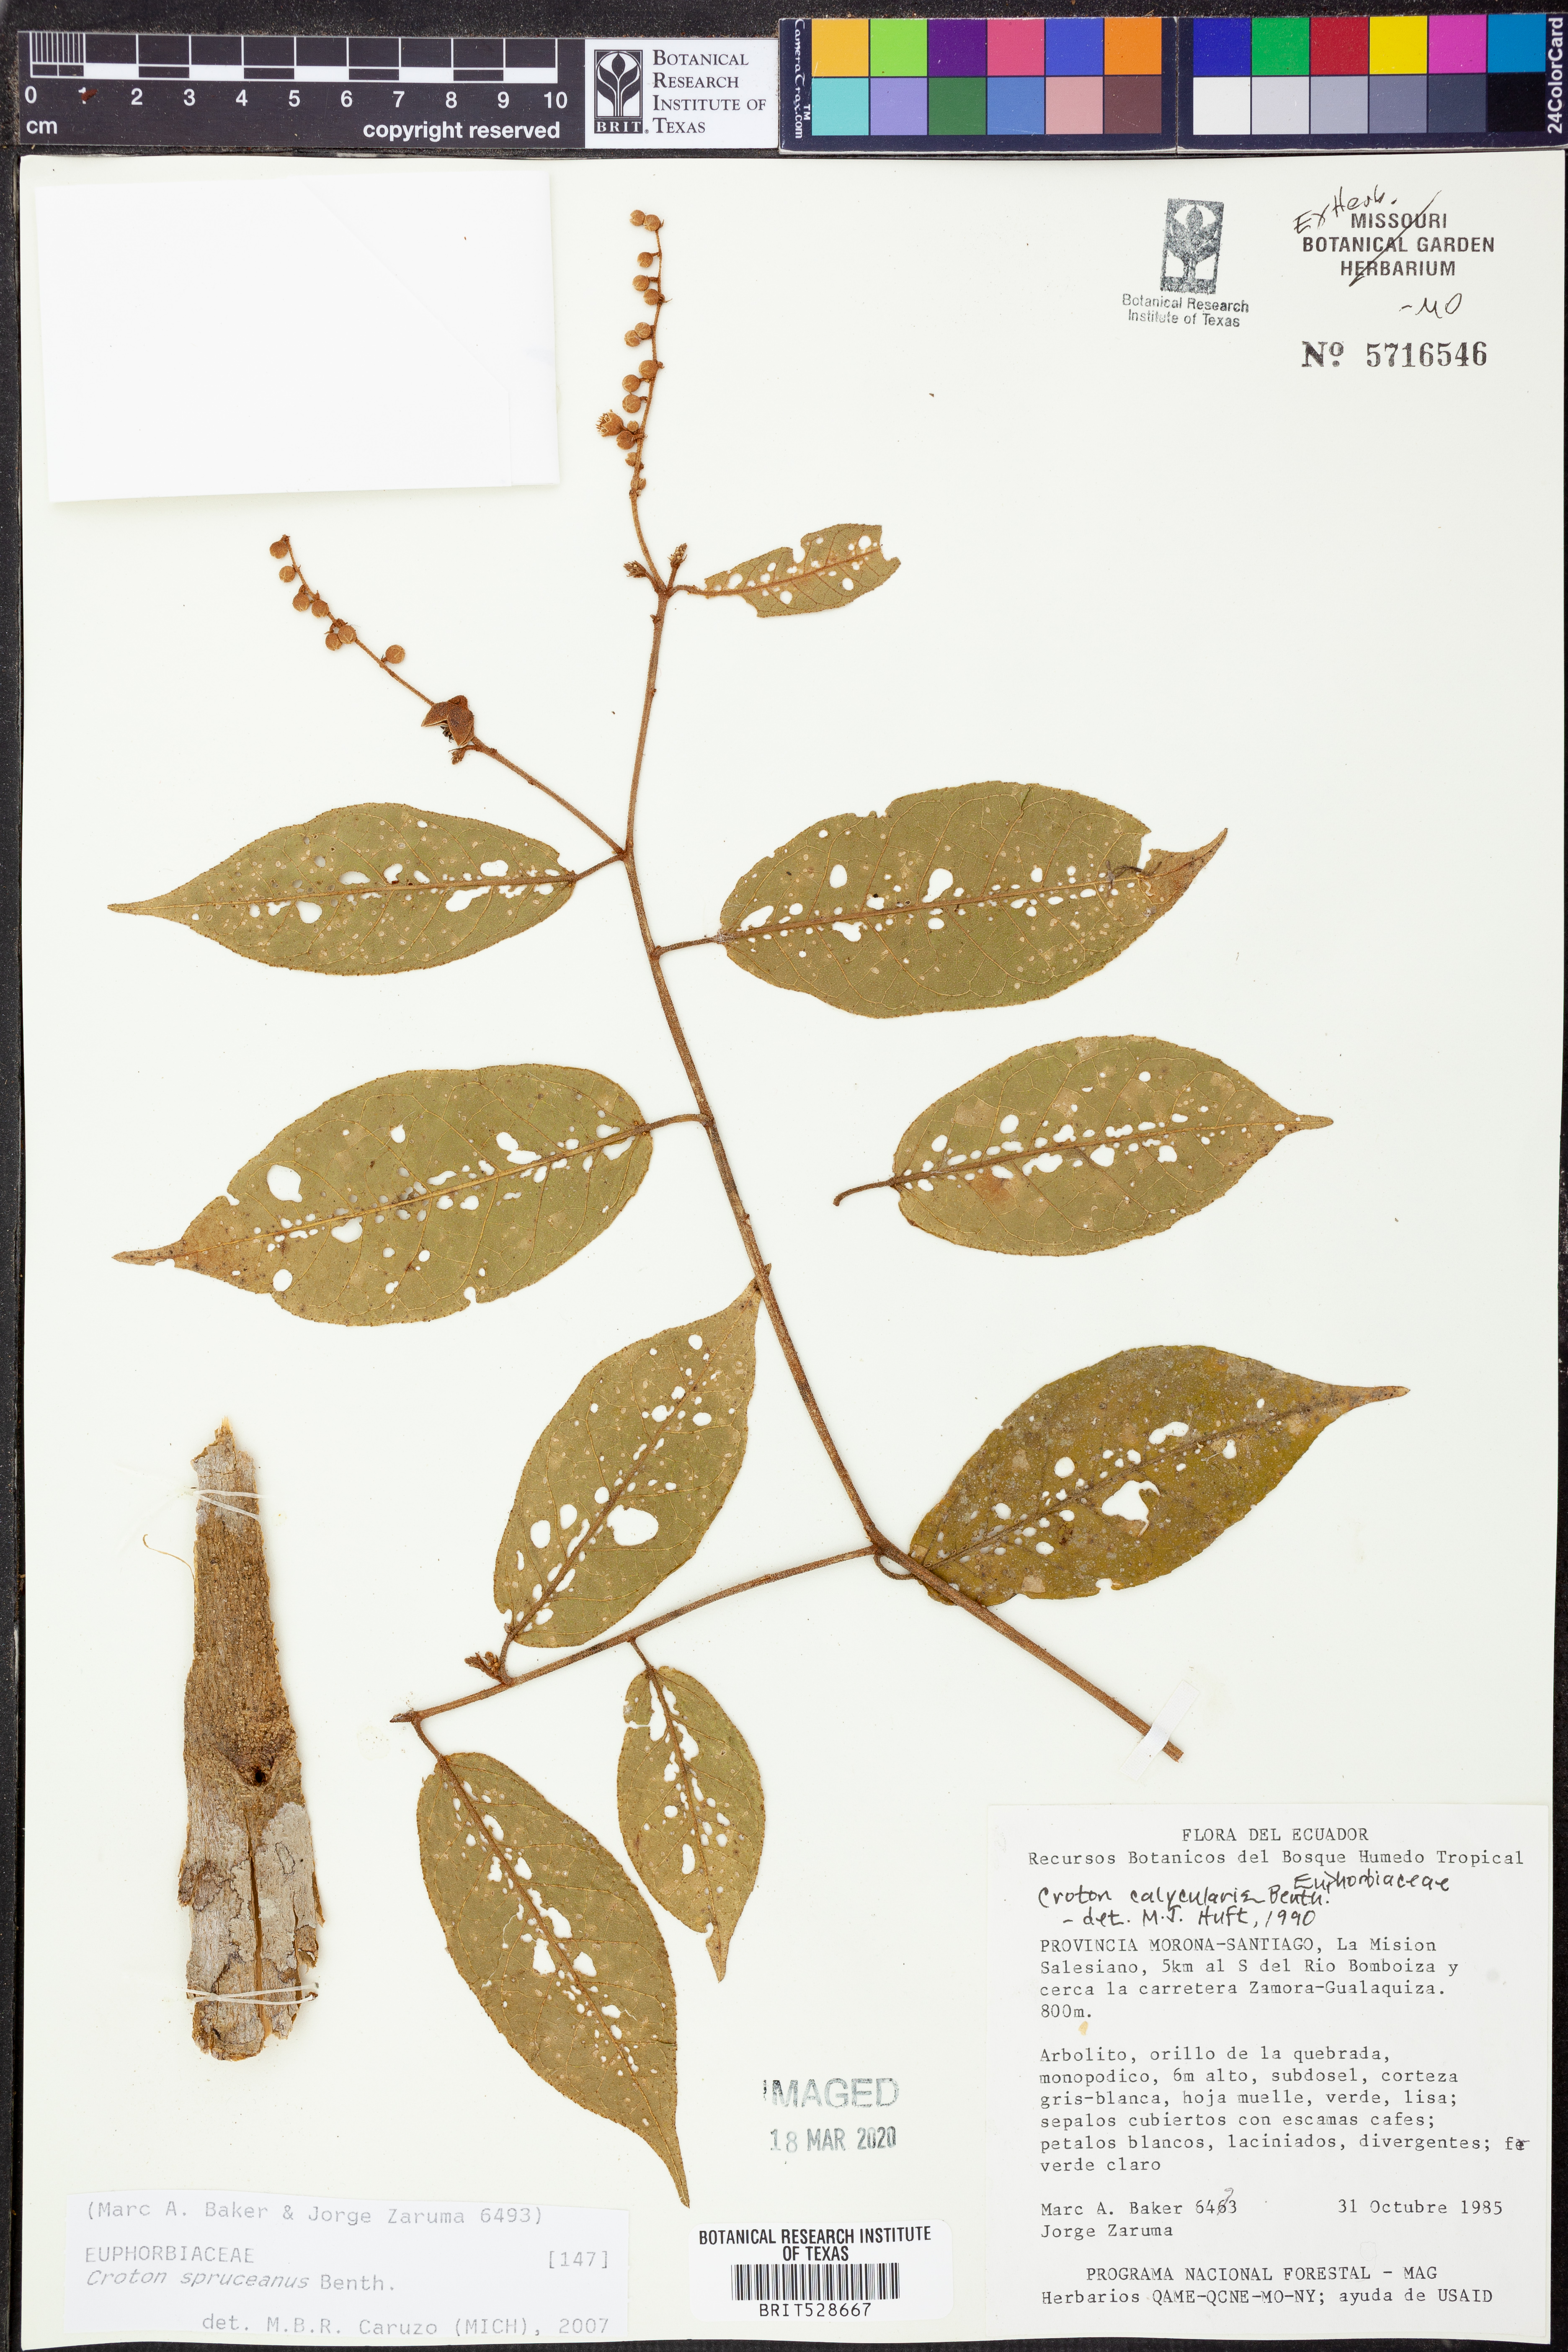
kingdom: Plantae
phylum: Tracheophyta
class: Magnoliopsida
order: Malpighiales
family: Euphorbiaceae
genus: Croton
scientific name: Croton spruceanus
